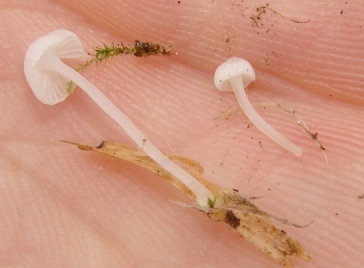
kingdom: Fungi
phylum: Basidiomycota
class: Agaricomycetes
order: Agaricales
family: Mycenaceae
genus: Mycena
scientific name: Mycena tenerrima
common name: pudret huesvamp
